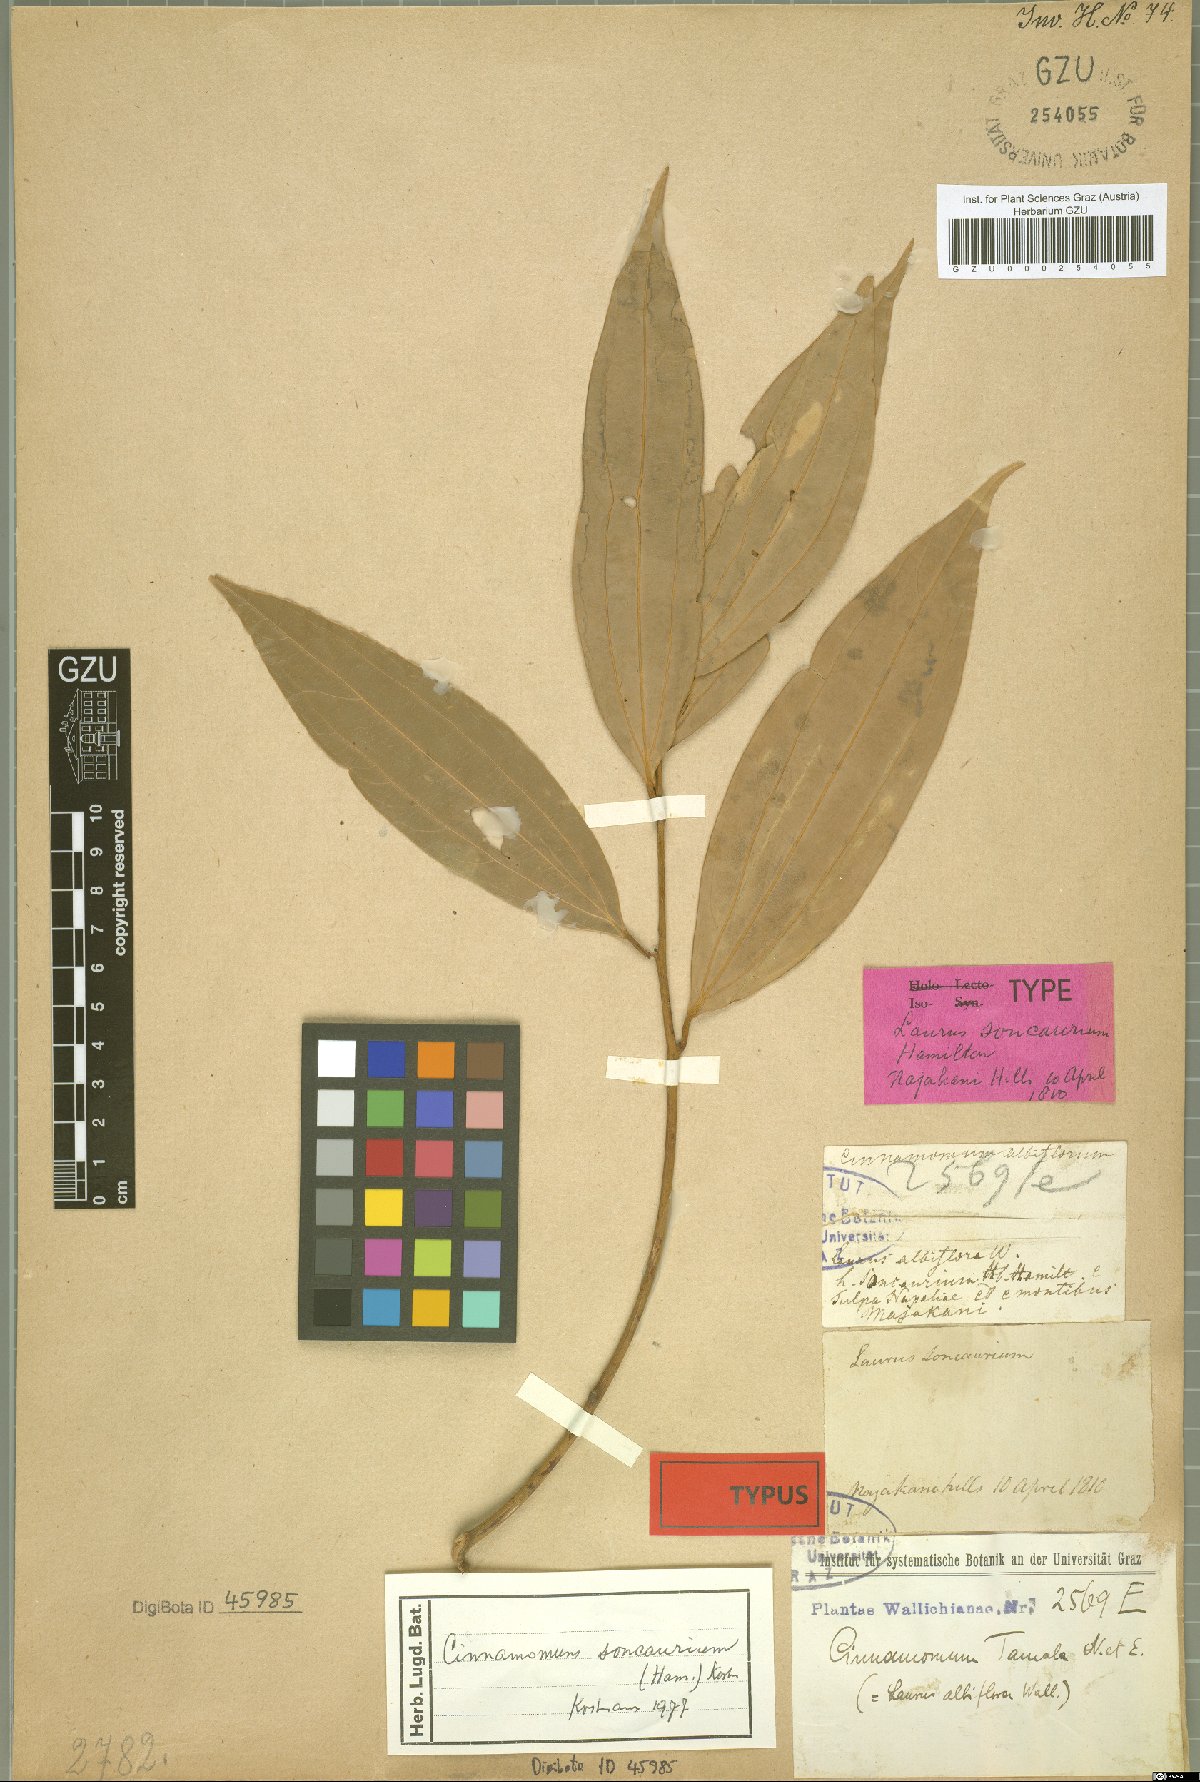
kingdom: Plantae
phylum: Tracheophyta
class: Magnoliopsida
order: Laurales
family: Lauraceae
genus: Cinnamomum
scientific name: Cinnamomum bejolghota
